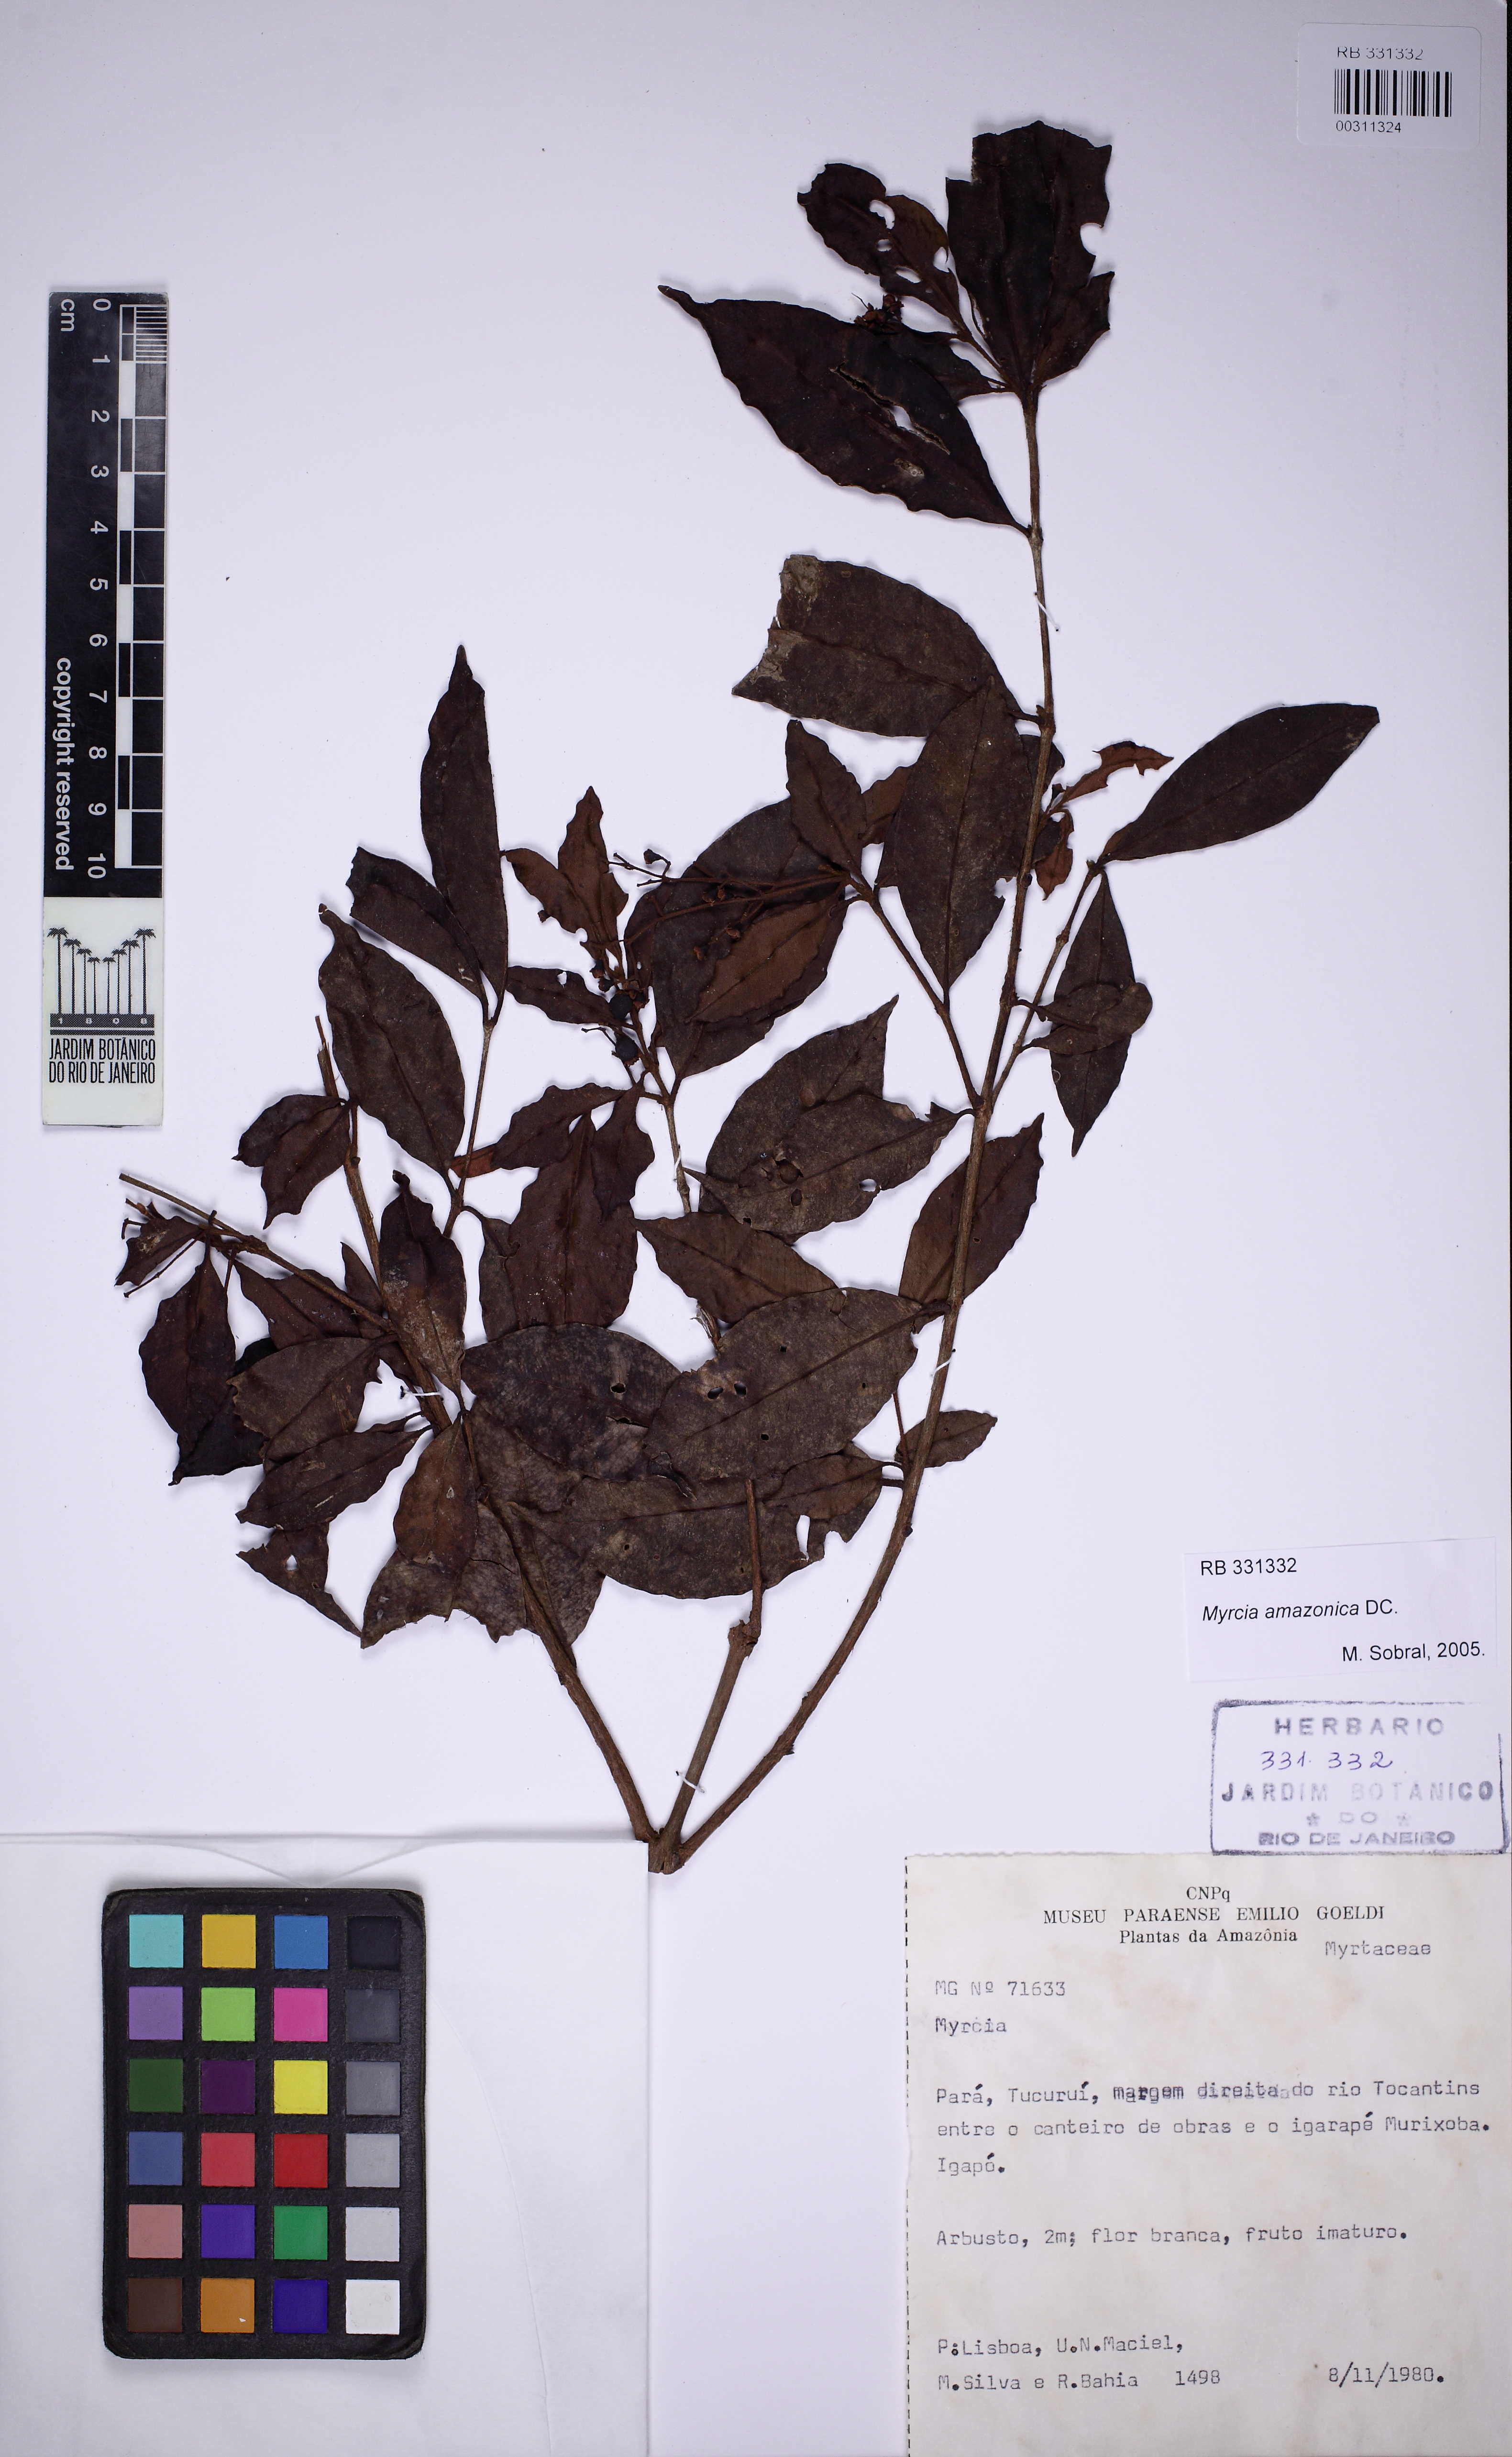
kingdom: Plantae
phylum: Tracheophyta
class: Magnoliopsida
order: Myrtales
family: Myrtaceae
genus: Myrcia
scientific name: Myrcia amazonica
